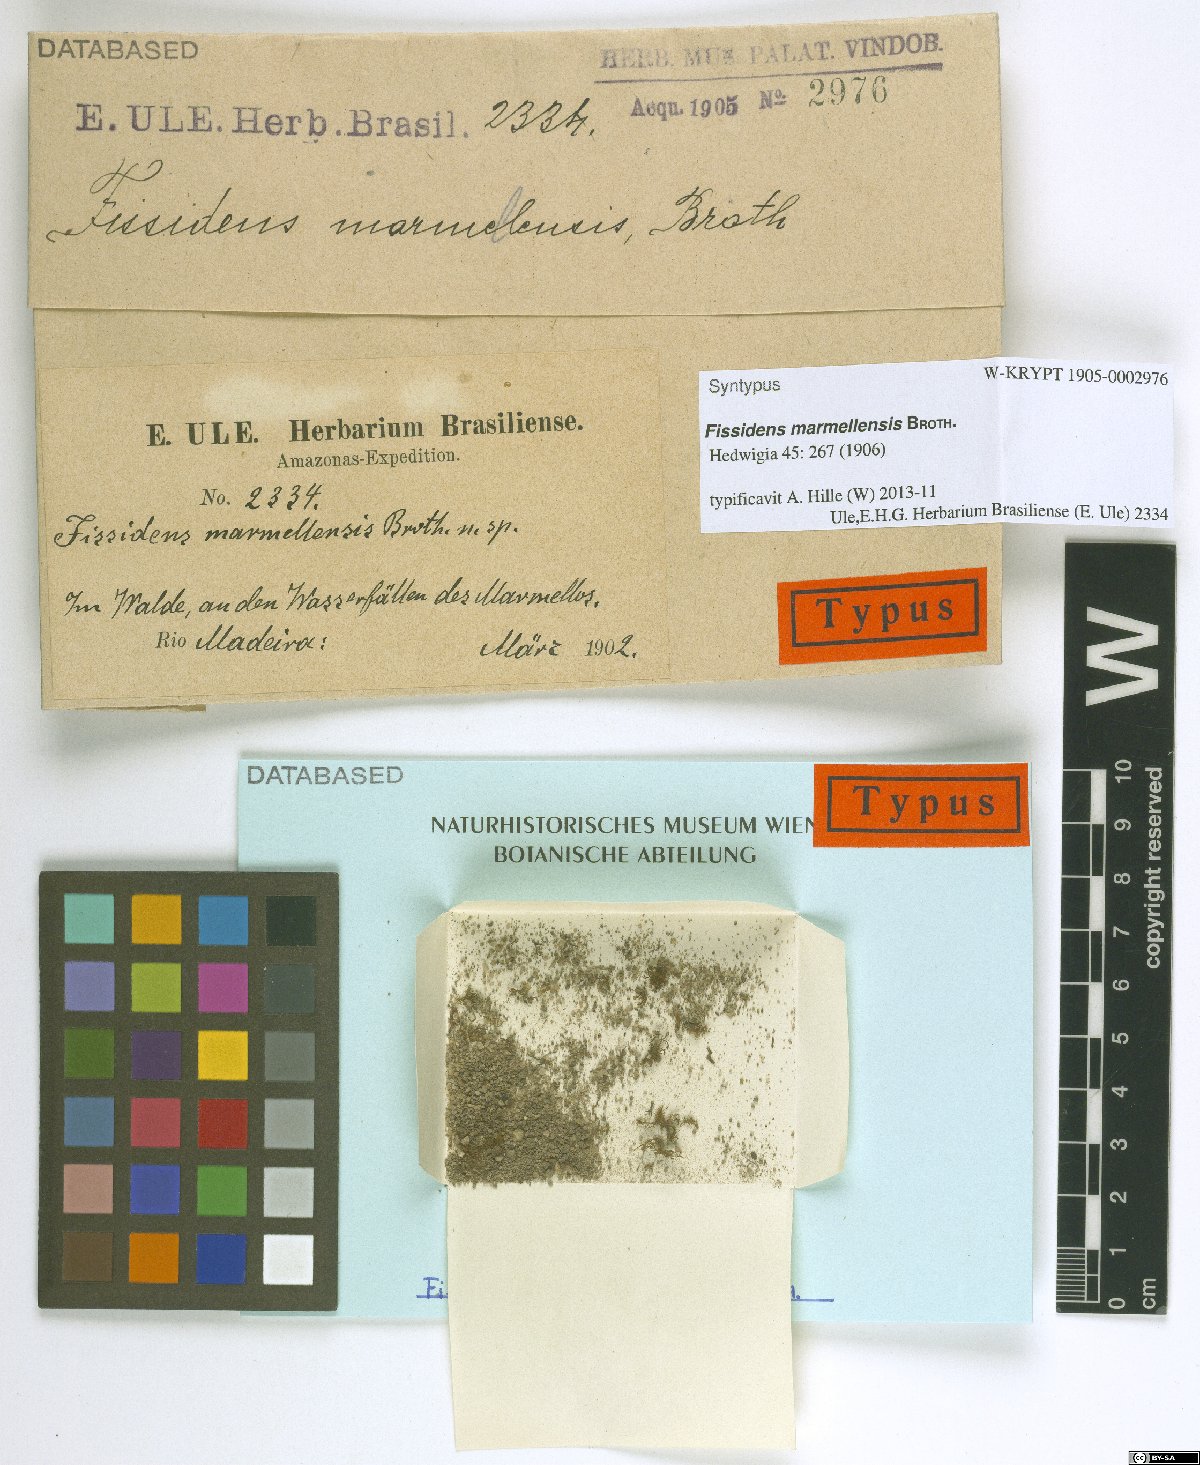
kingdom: Plantae
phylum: Bryophyta
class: Bryopsida
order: Dicranales
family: Fissidentaceae
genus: Fissidens
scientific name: Fissidens prionodes
